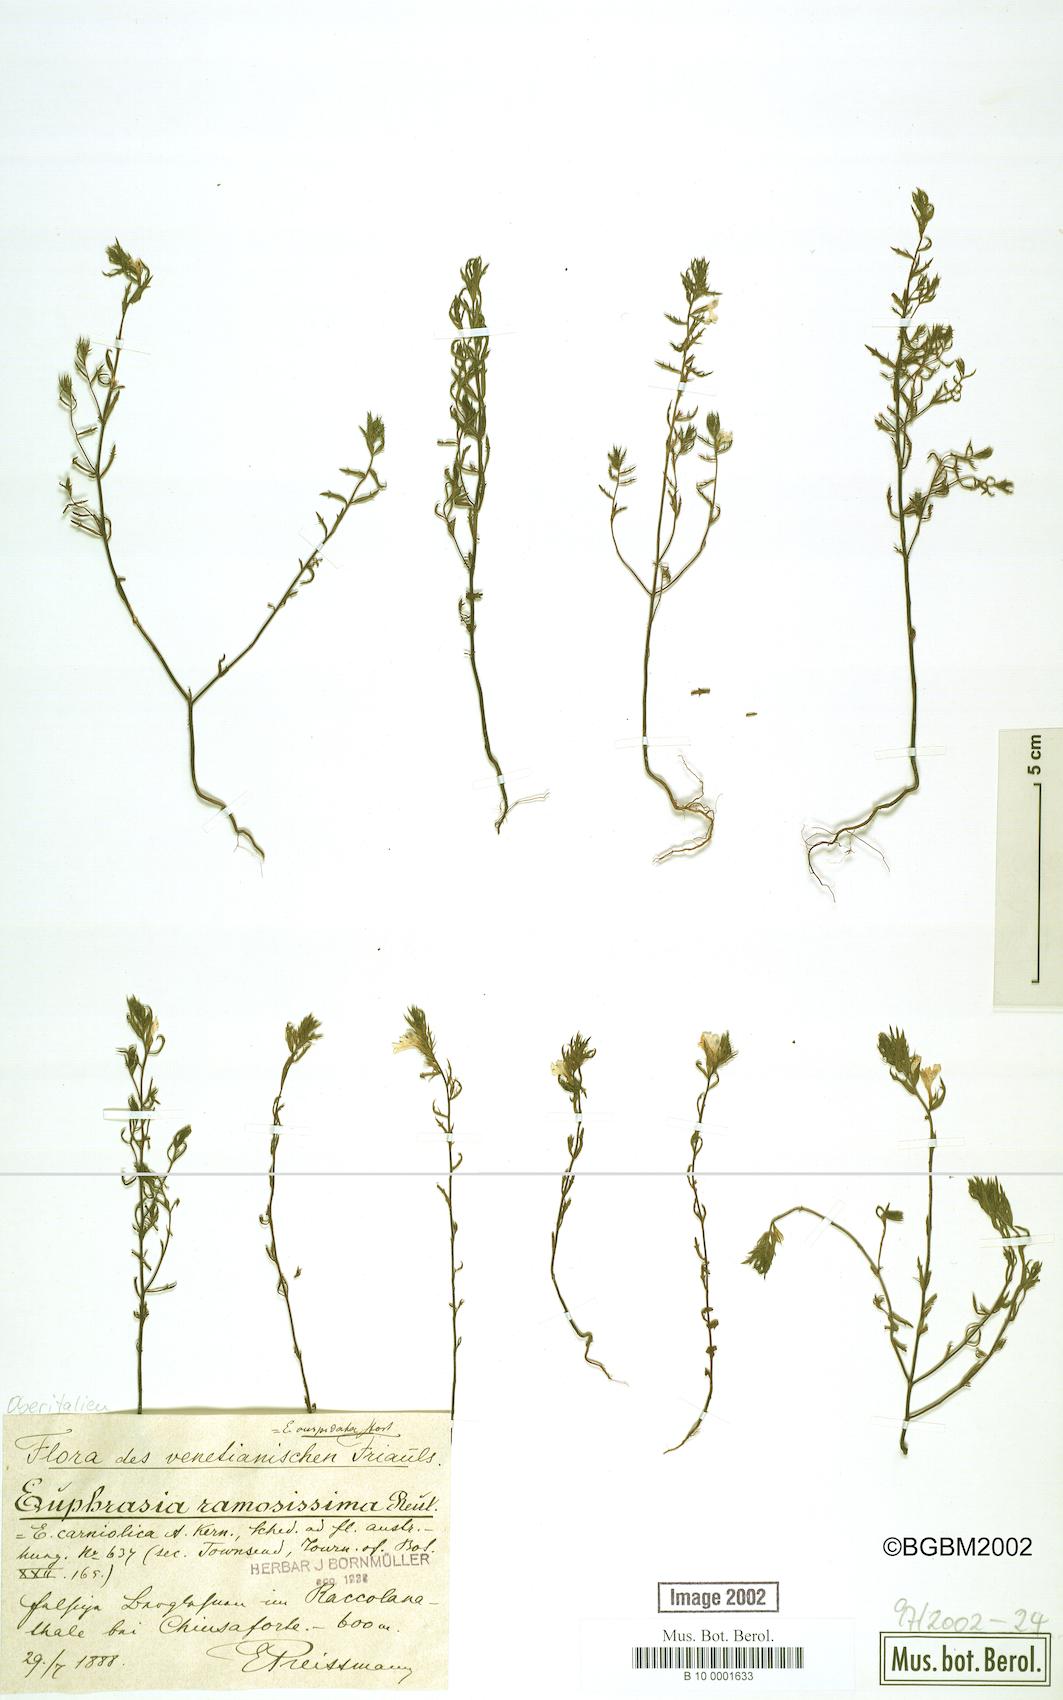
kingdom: Plantae
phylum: Tracheophyta
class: Magnoliopsida
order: Lamiales
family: Orobanchaceae
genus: Euphrasia
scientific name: Euphrasia officinalis
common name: Eyebright
